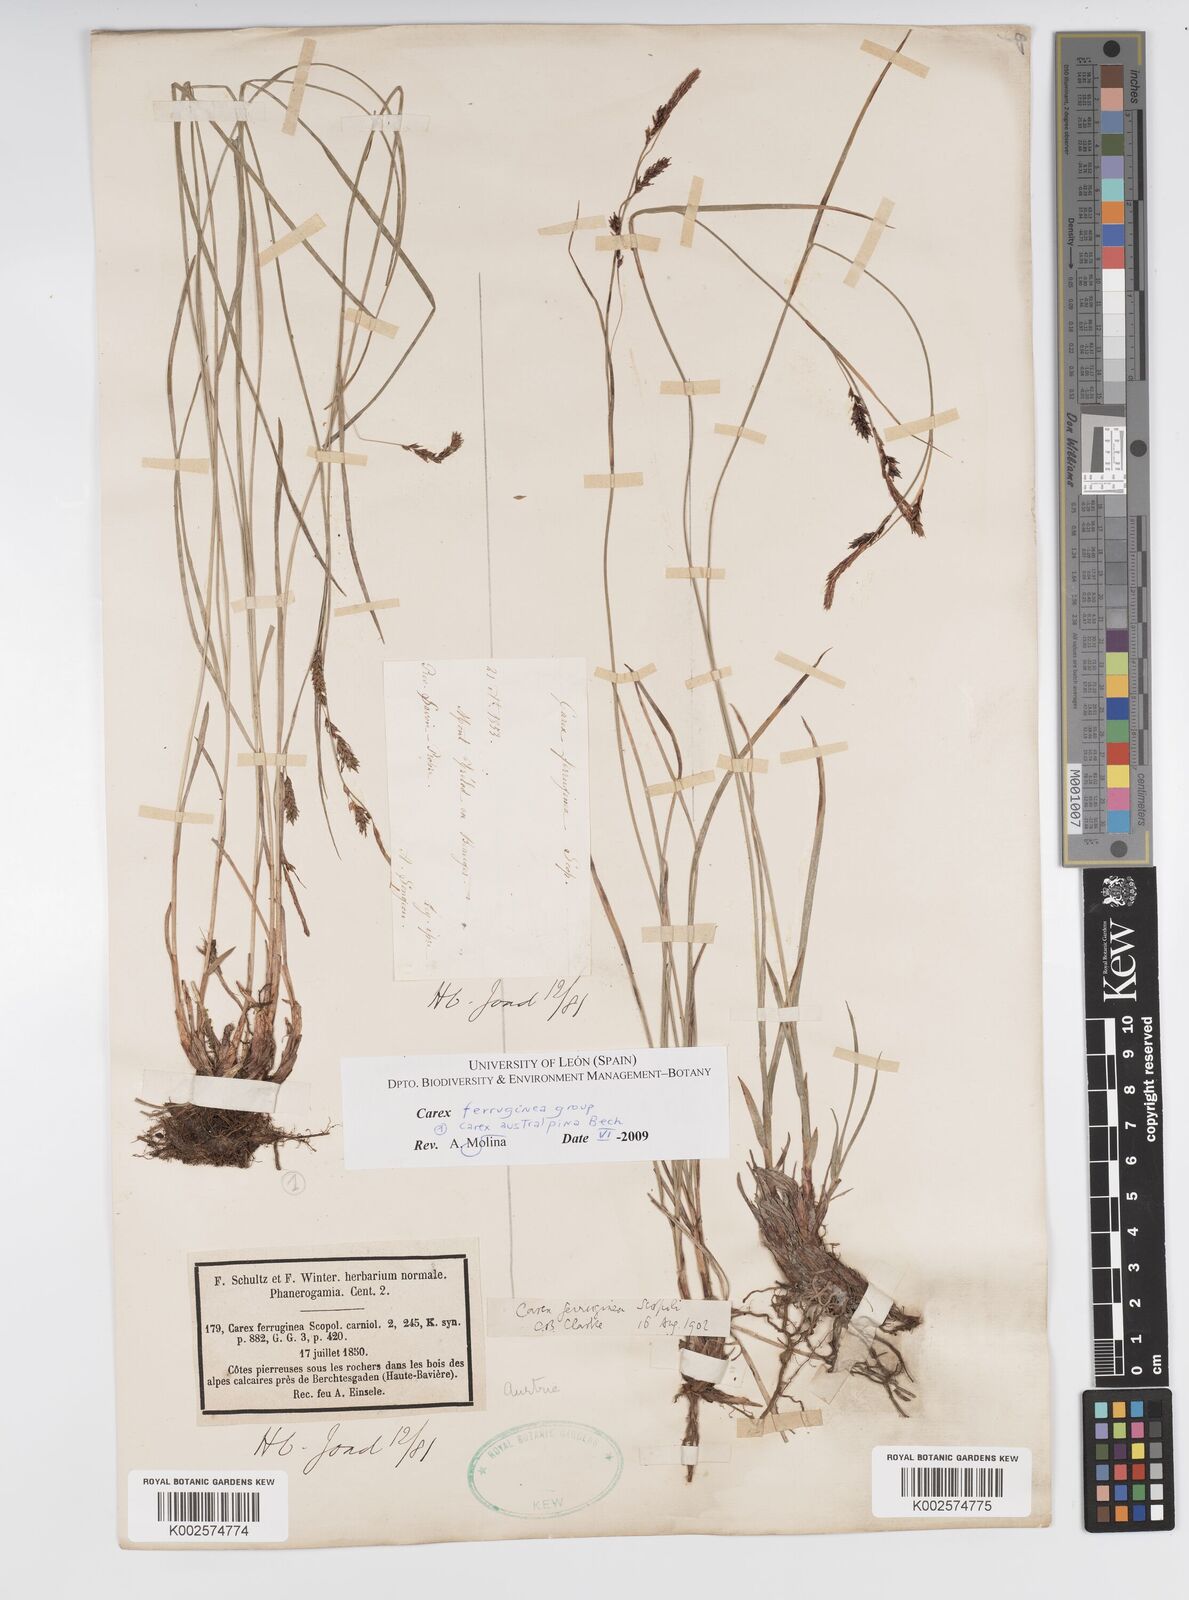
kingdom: Plantae
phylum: Tracheophyta
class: Liliopsida
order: Poales
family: Cyperaceae
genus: Carex
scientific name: Carex austroalpina
